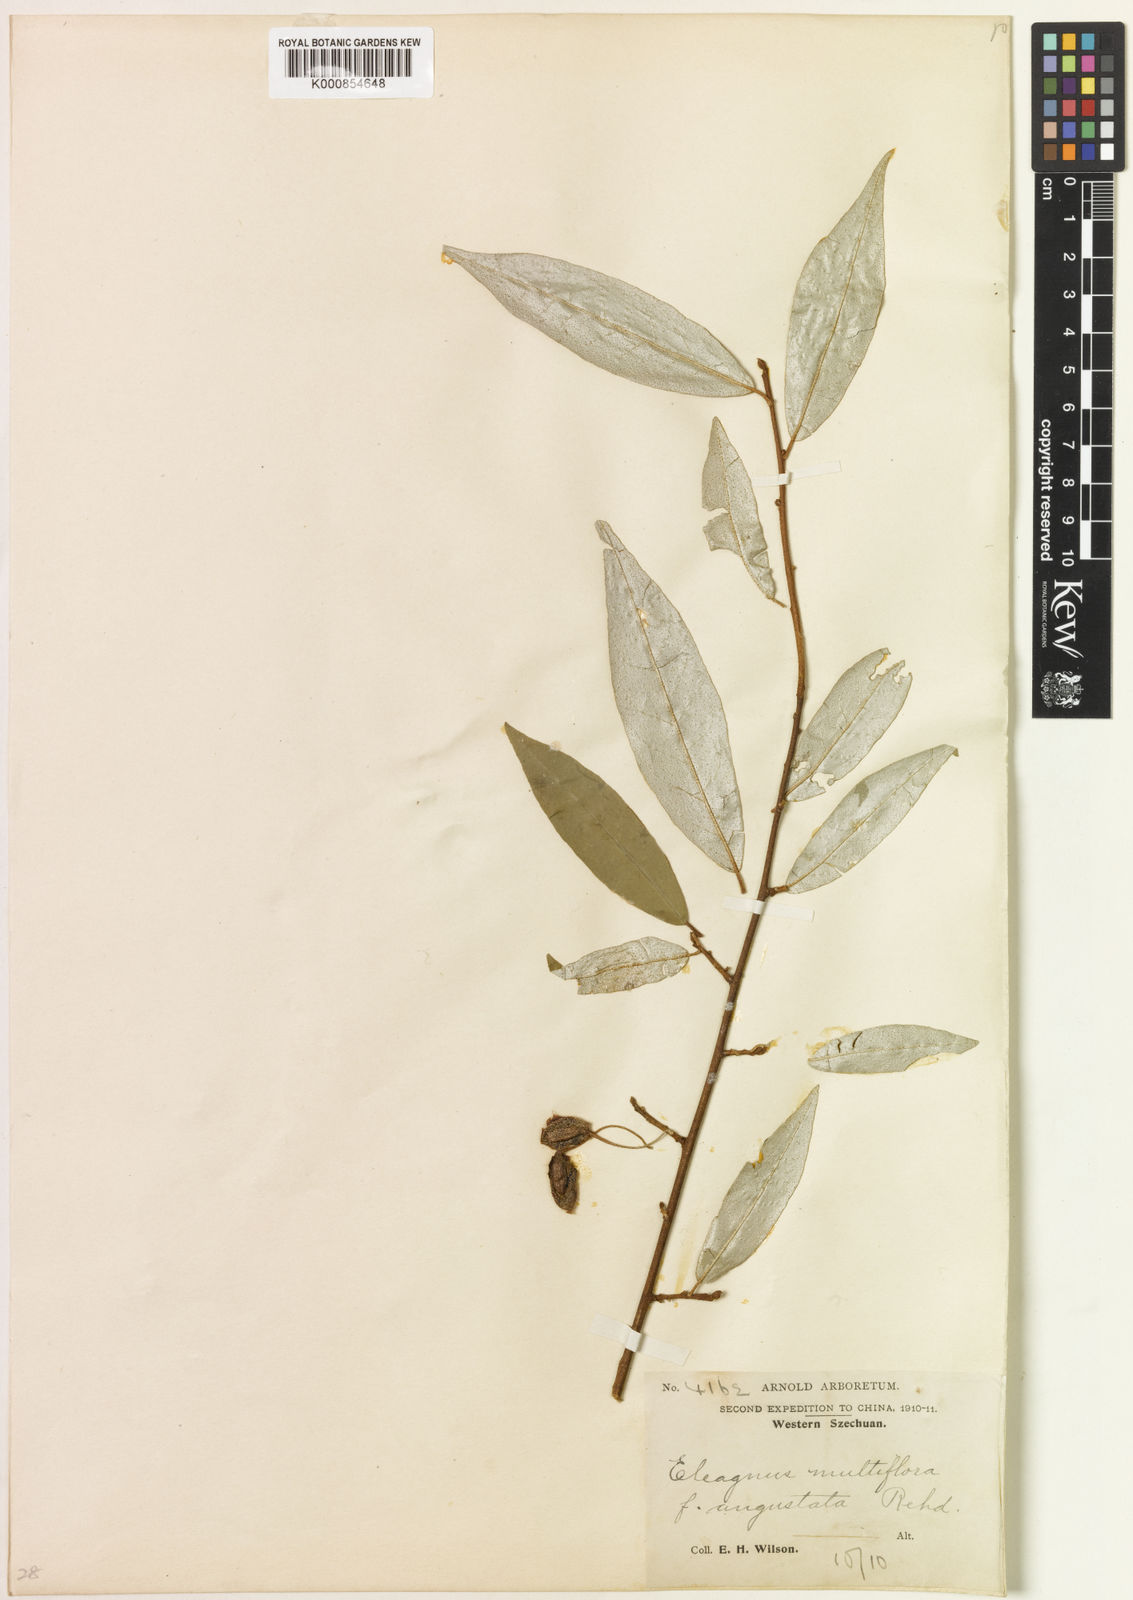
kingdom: Plantae
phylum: Tracheophyta
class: Magnoliopsida
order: Rosales
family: Elaeagnaceae
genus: Elaeagnus
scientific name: Elaeagnus multiflora
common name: Cherry elaeagnus
